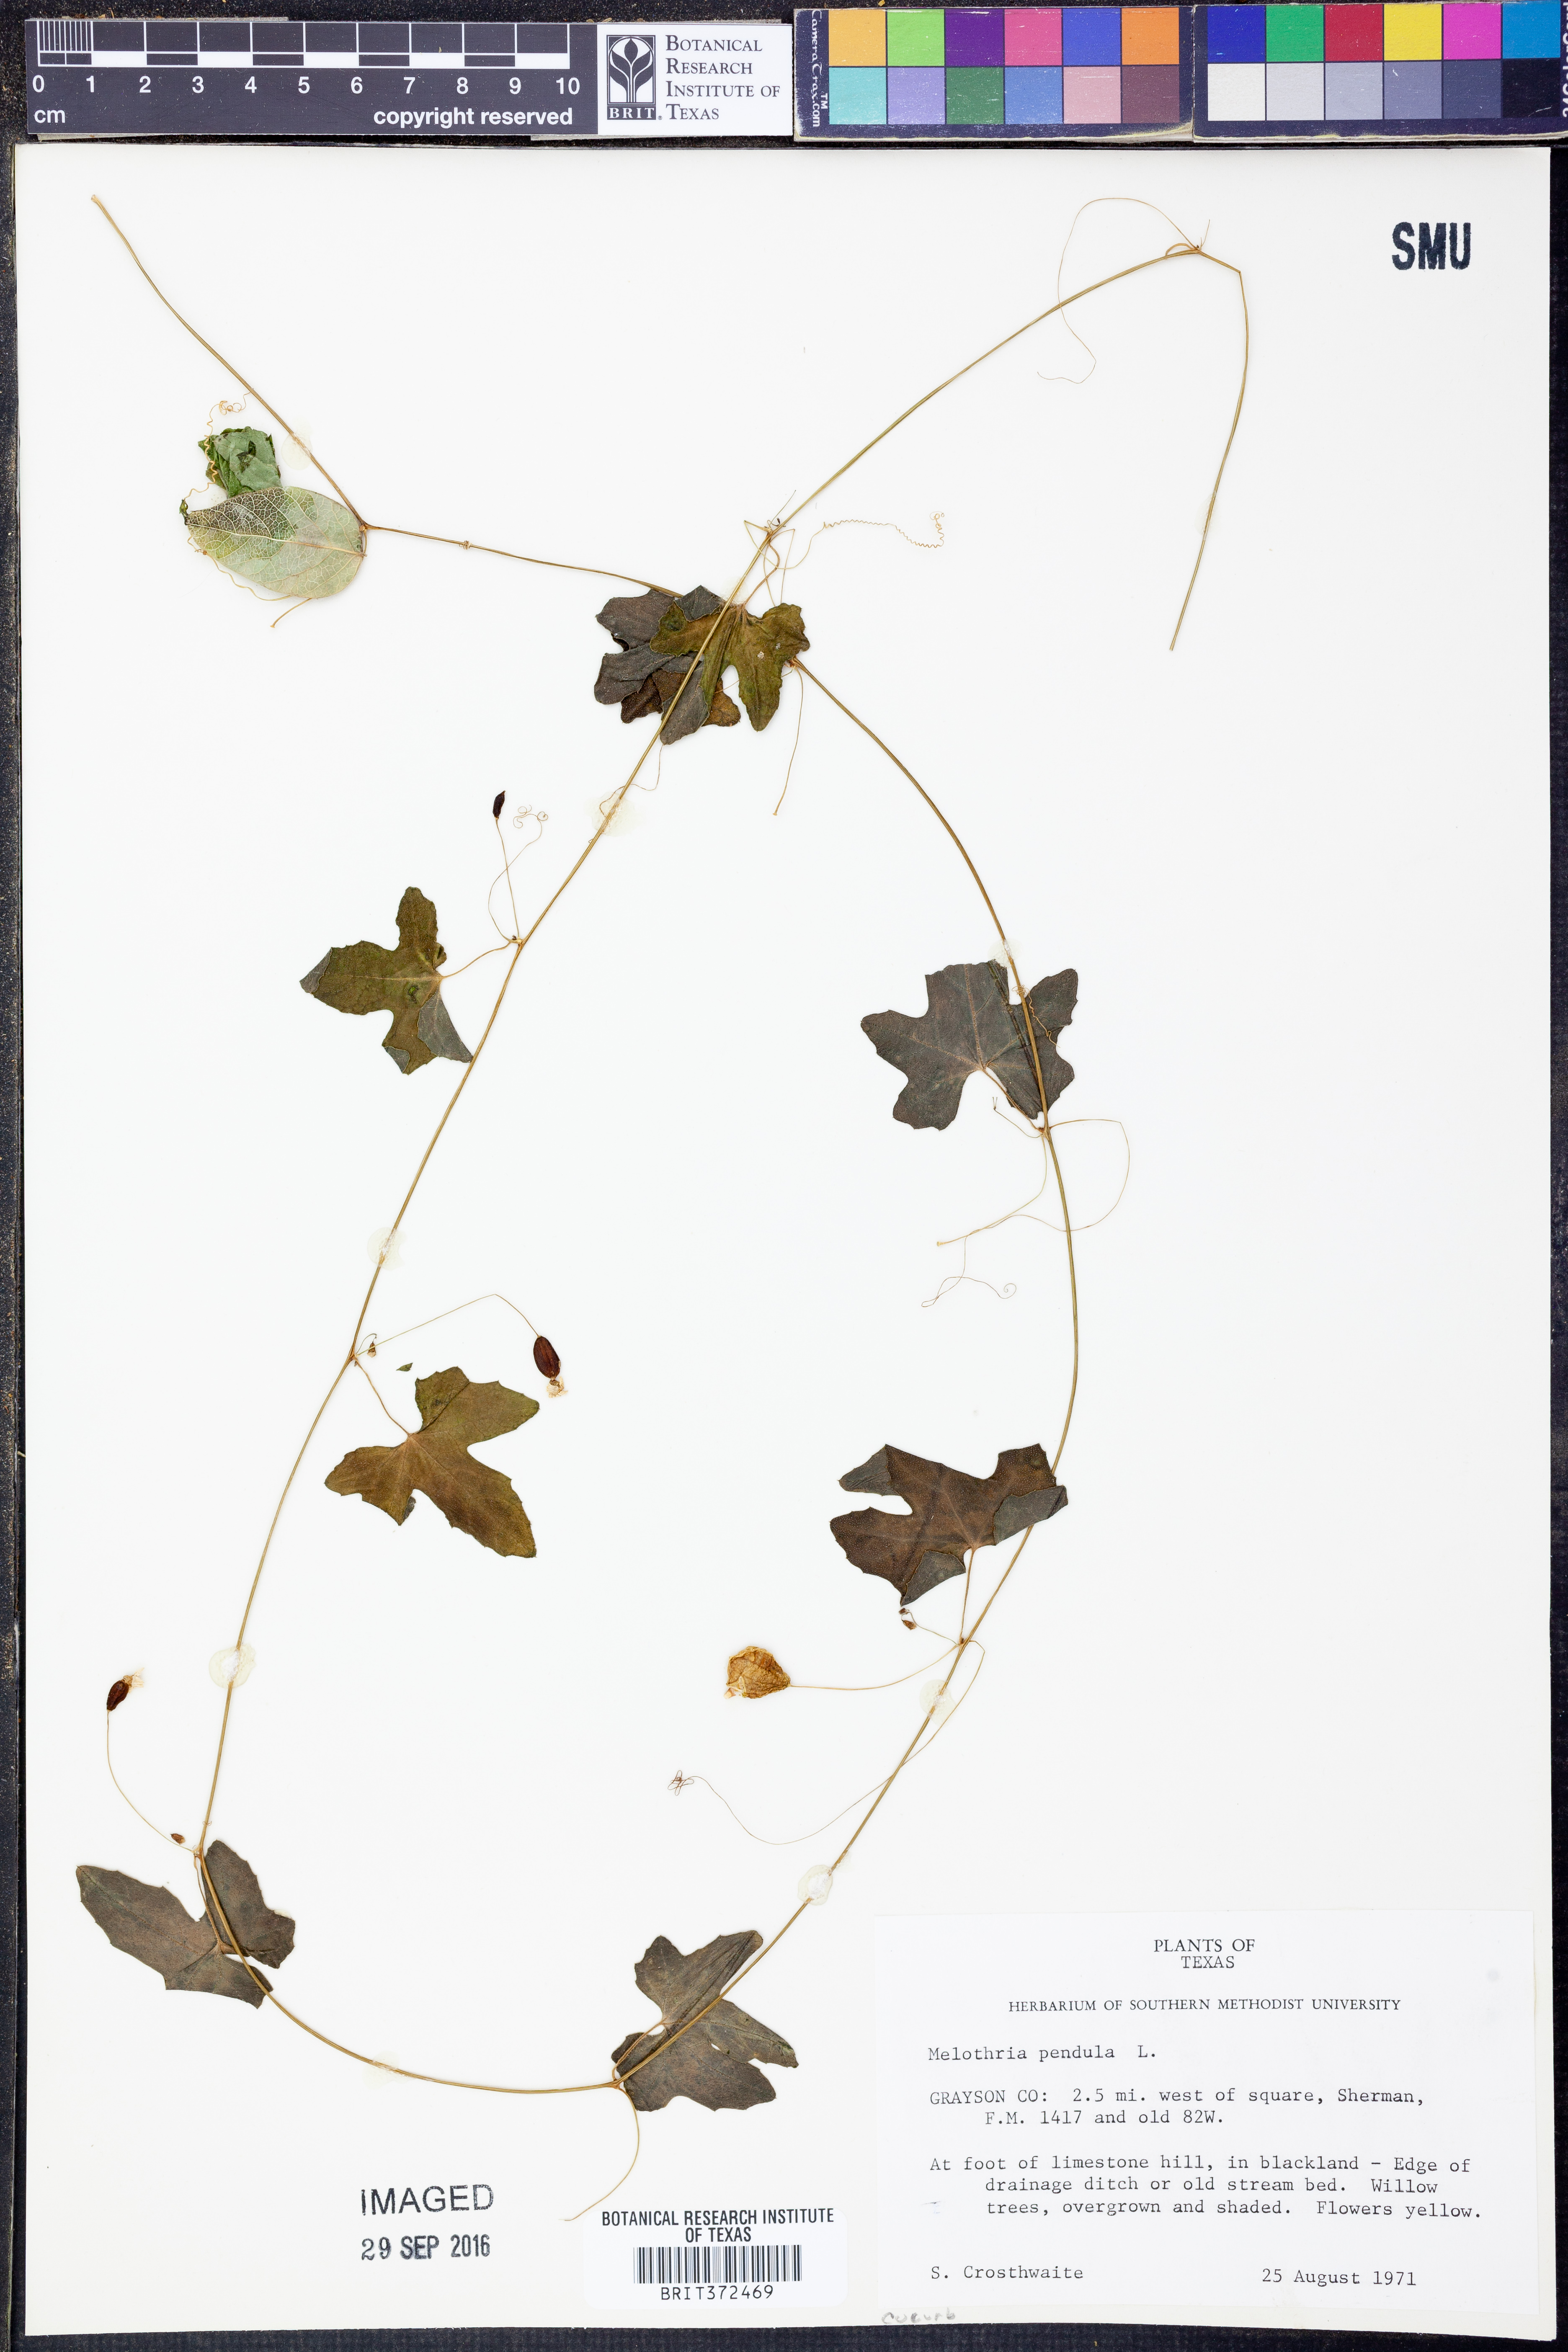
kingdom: Plantae
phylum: Tracheophyta
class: Magnoliopsida
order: Cucurbitales
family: Cucurbitaceae
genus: Melothria
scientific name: Melothria pendula
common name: Creeping-cucumber
